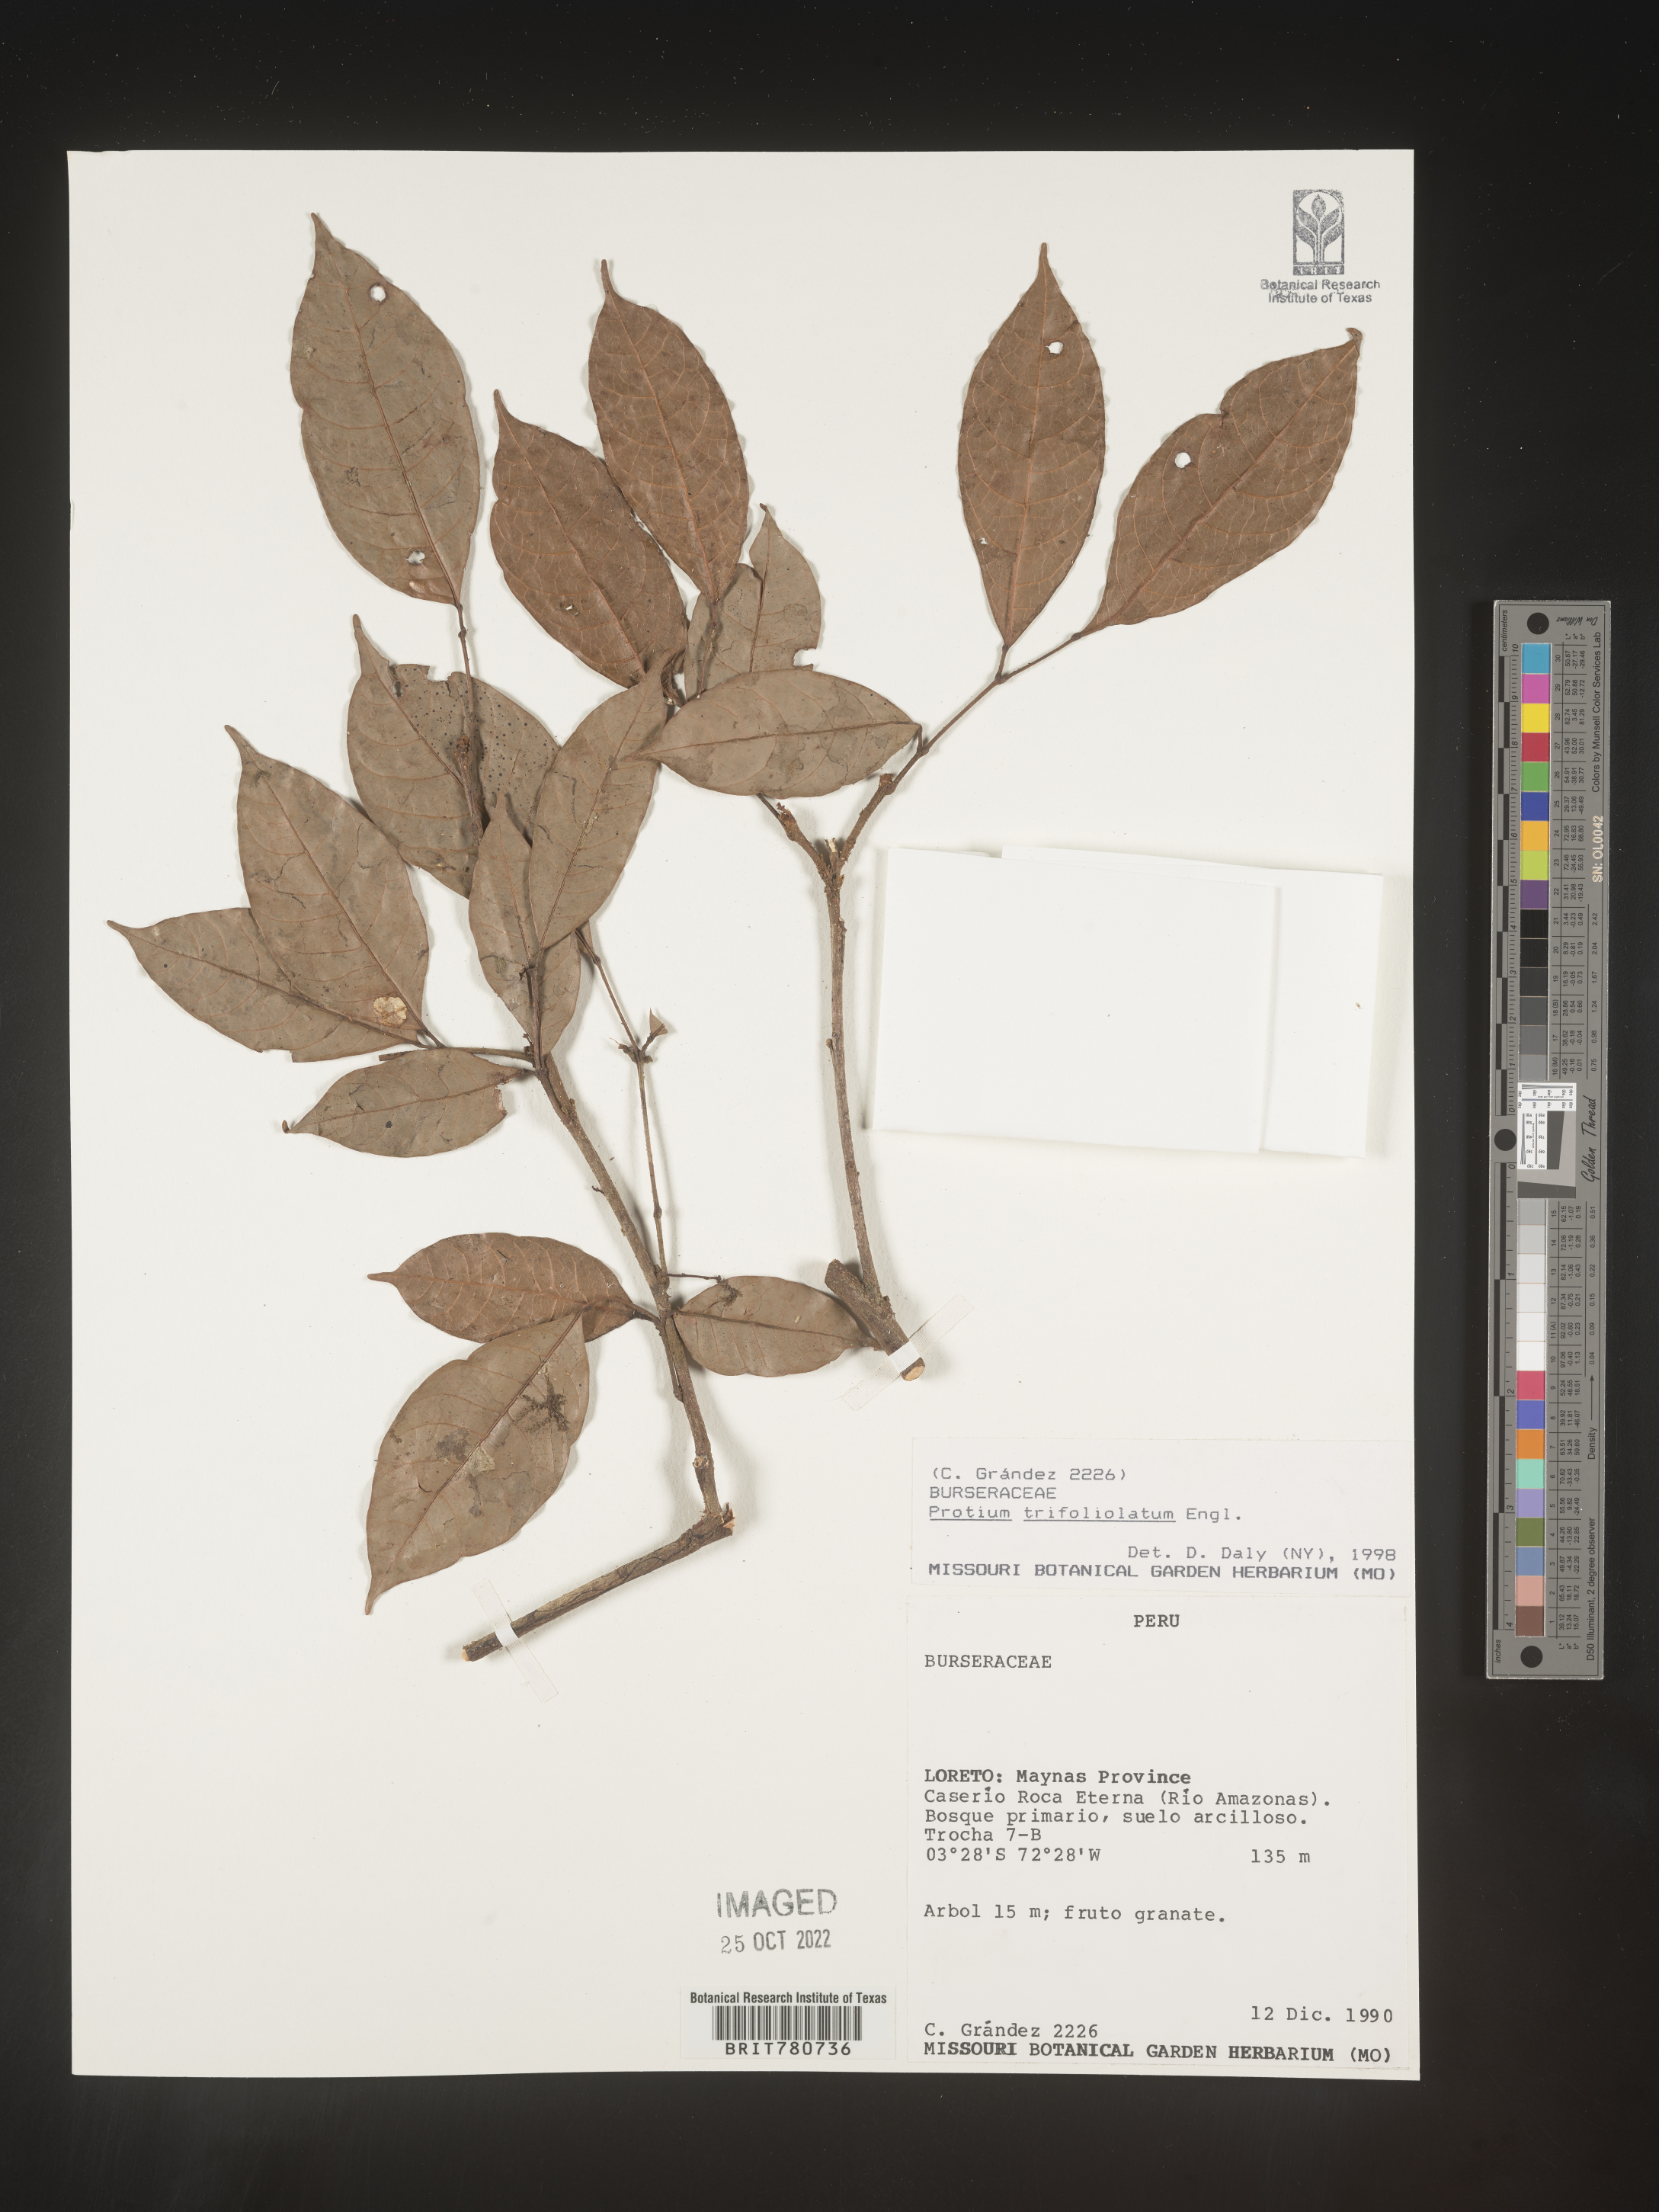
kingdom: Plantae
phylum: Tracheophyta
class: Magnoliopsida
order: Sapindales
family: Burseraceae
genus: Protium
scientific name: Protium
